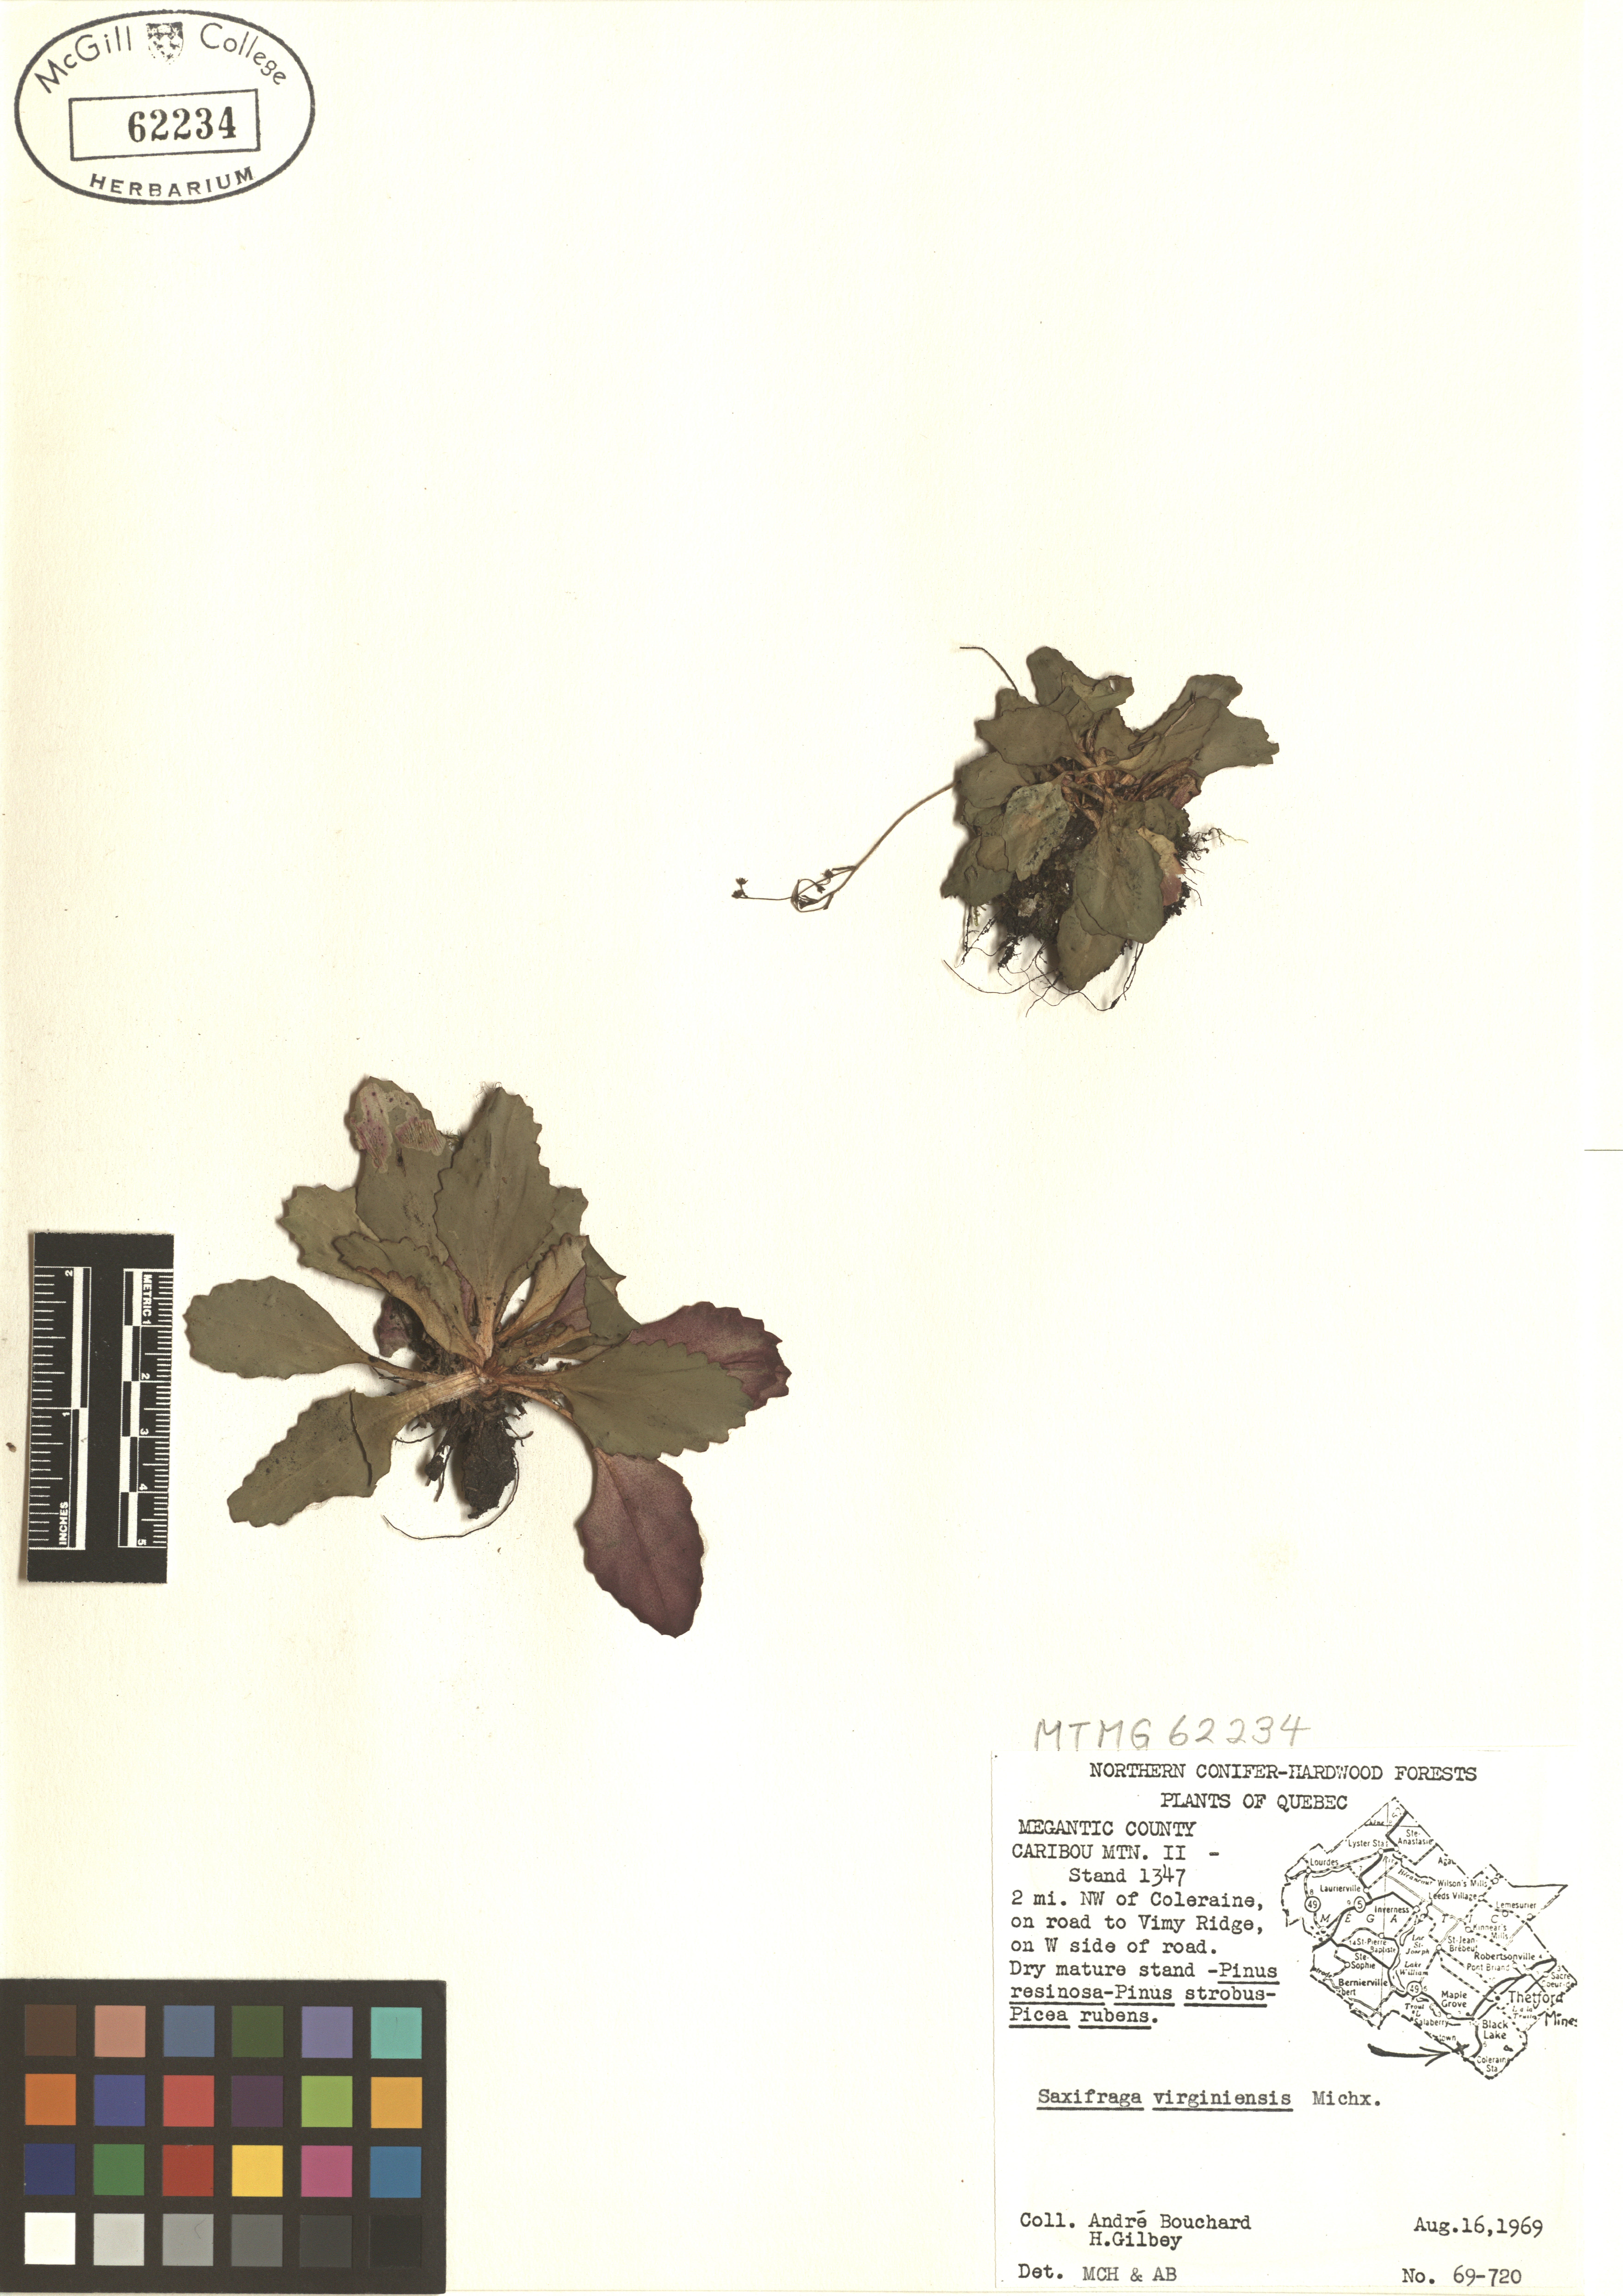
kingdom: Plantae
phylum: Tracheophyta
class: Magnoliopsida
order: Saxifragales
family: Saxifragaceae
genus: Micranthes
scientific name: Micranthes virginiensis
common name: Early saxifrage
